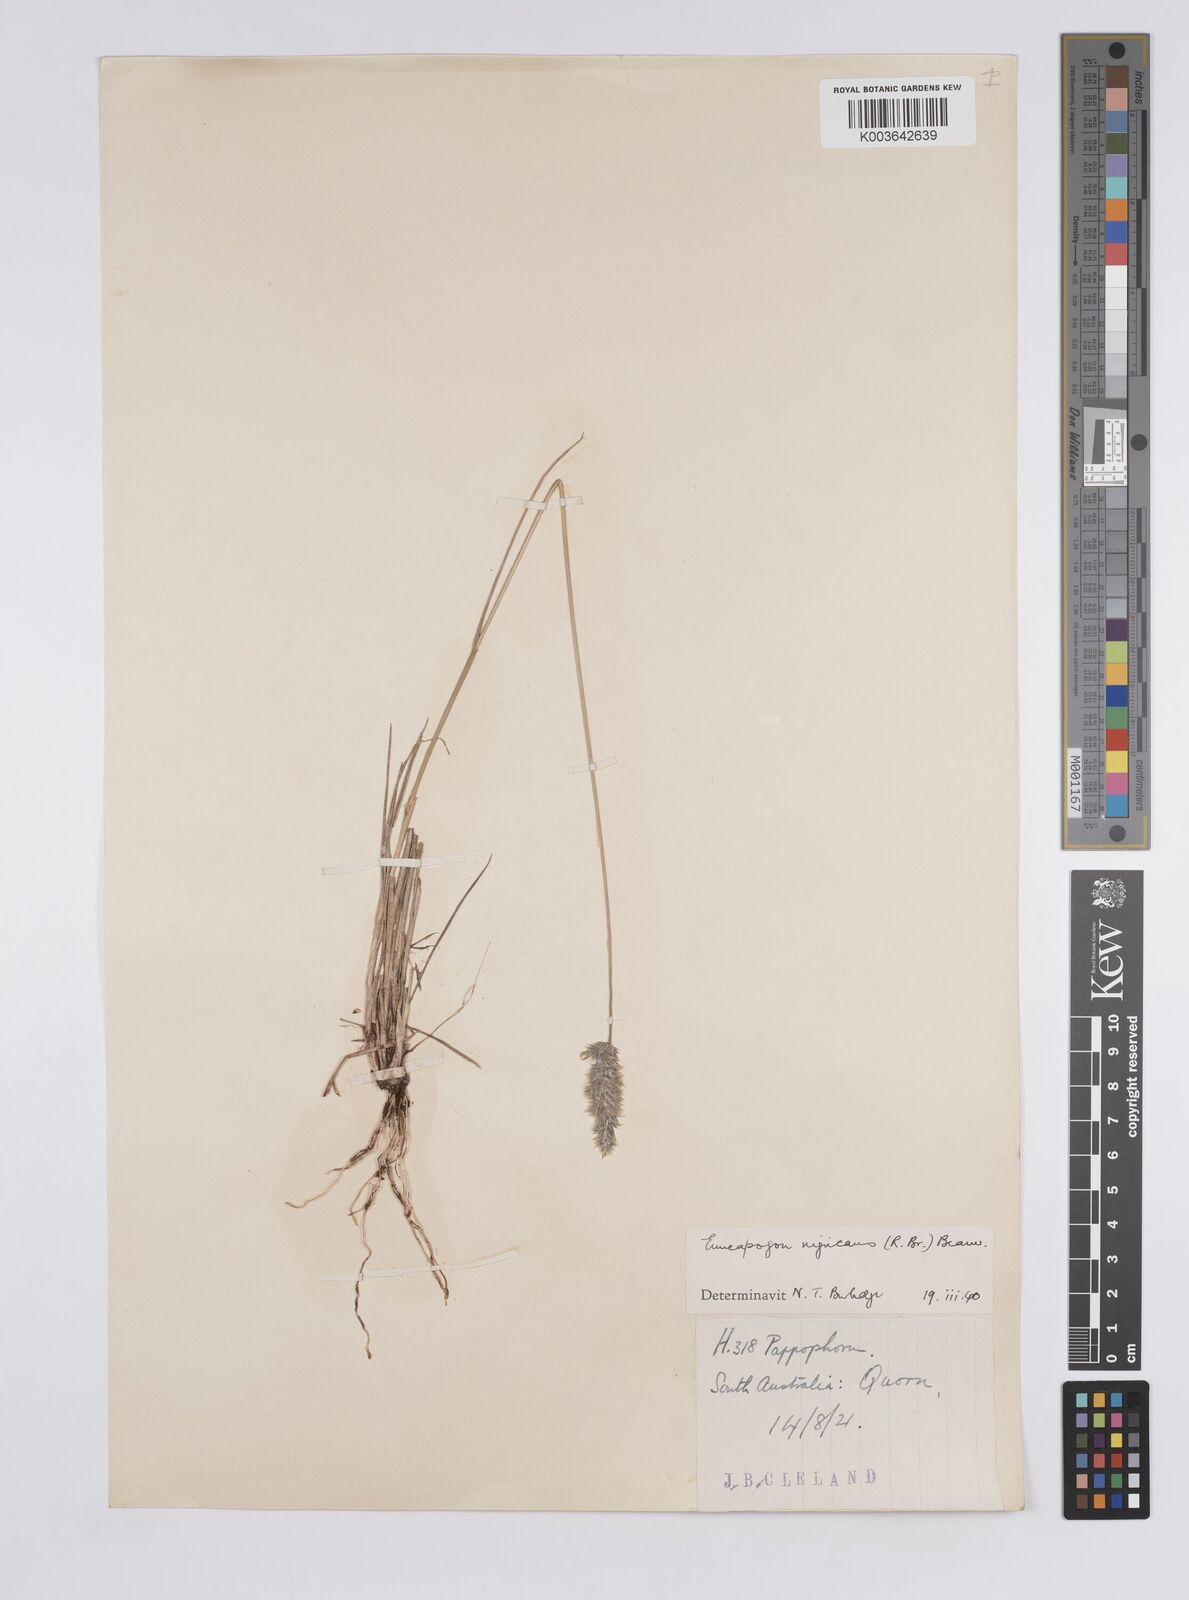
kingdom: Plantae
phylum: Tracheophyta
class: Liliopsida
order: Poales
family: Poaceae
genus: Enneapogon
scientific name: Enneapogon nigricans
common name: Pappus grass
